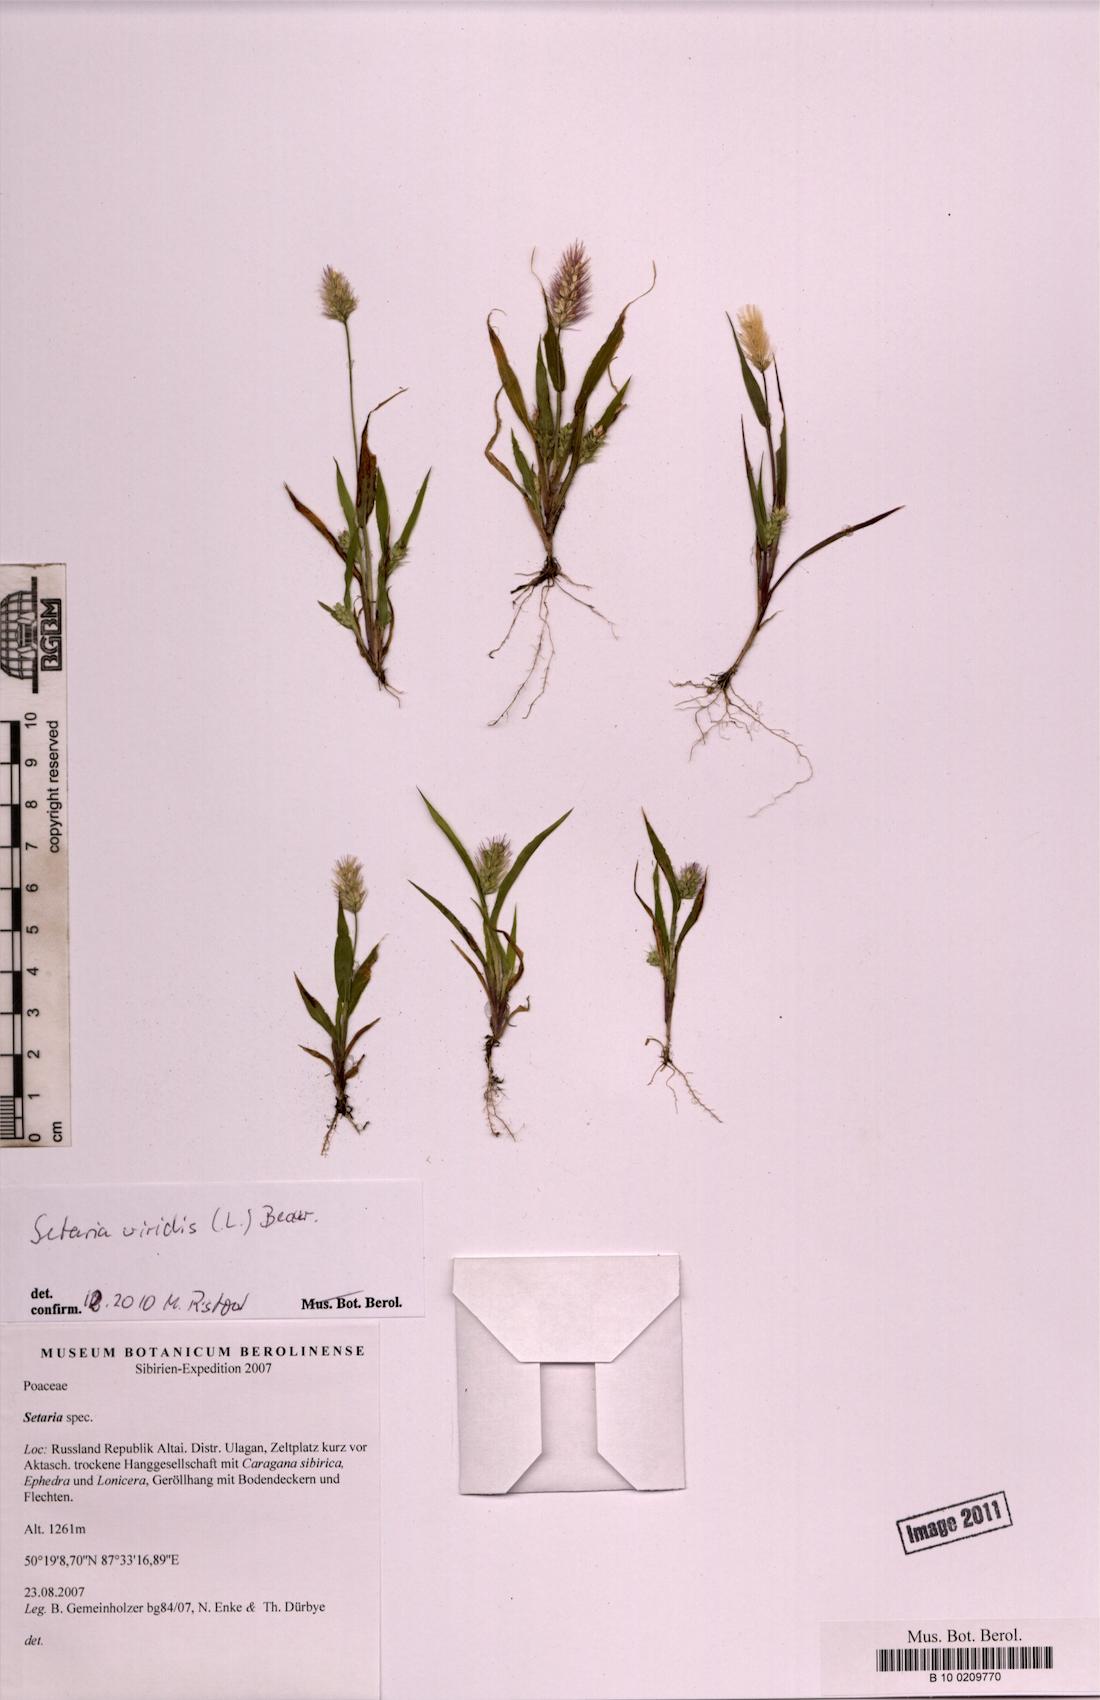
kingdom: Plantae
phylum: Tracheophyta
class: Liliopsida
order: Poales
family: Poaceae
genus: Setaria
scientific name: Setaria viridis
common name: Green bristlegrass
